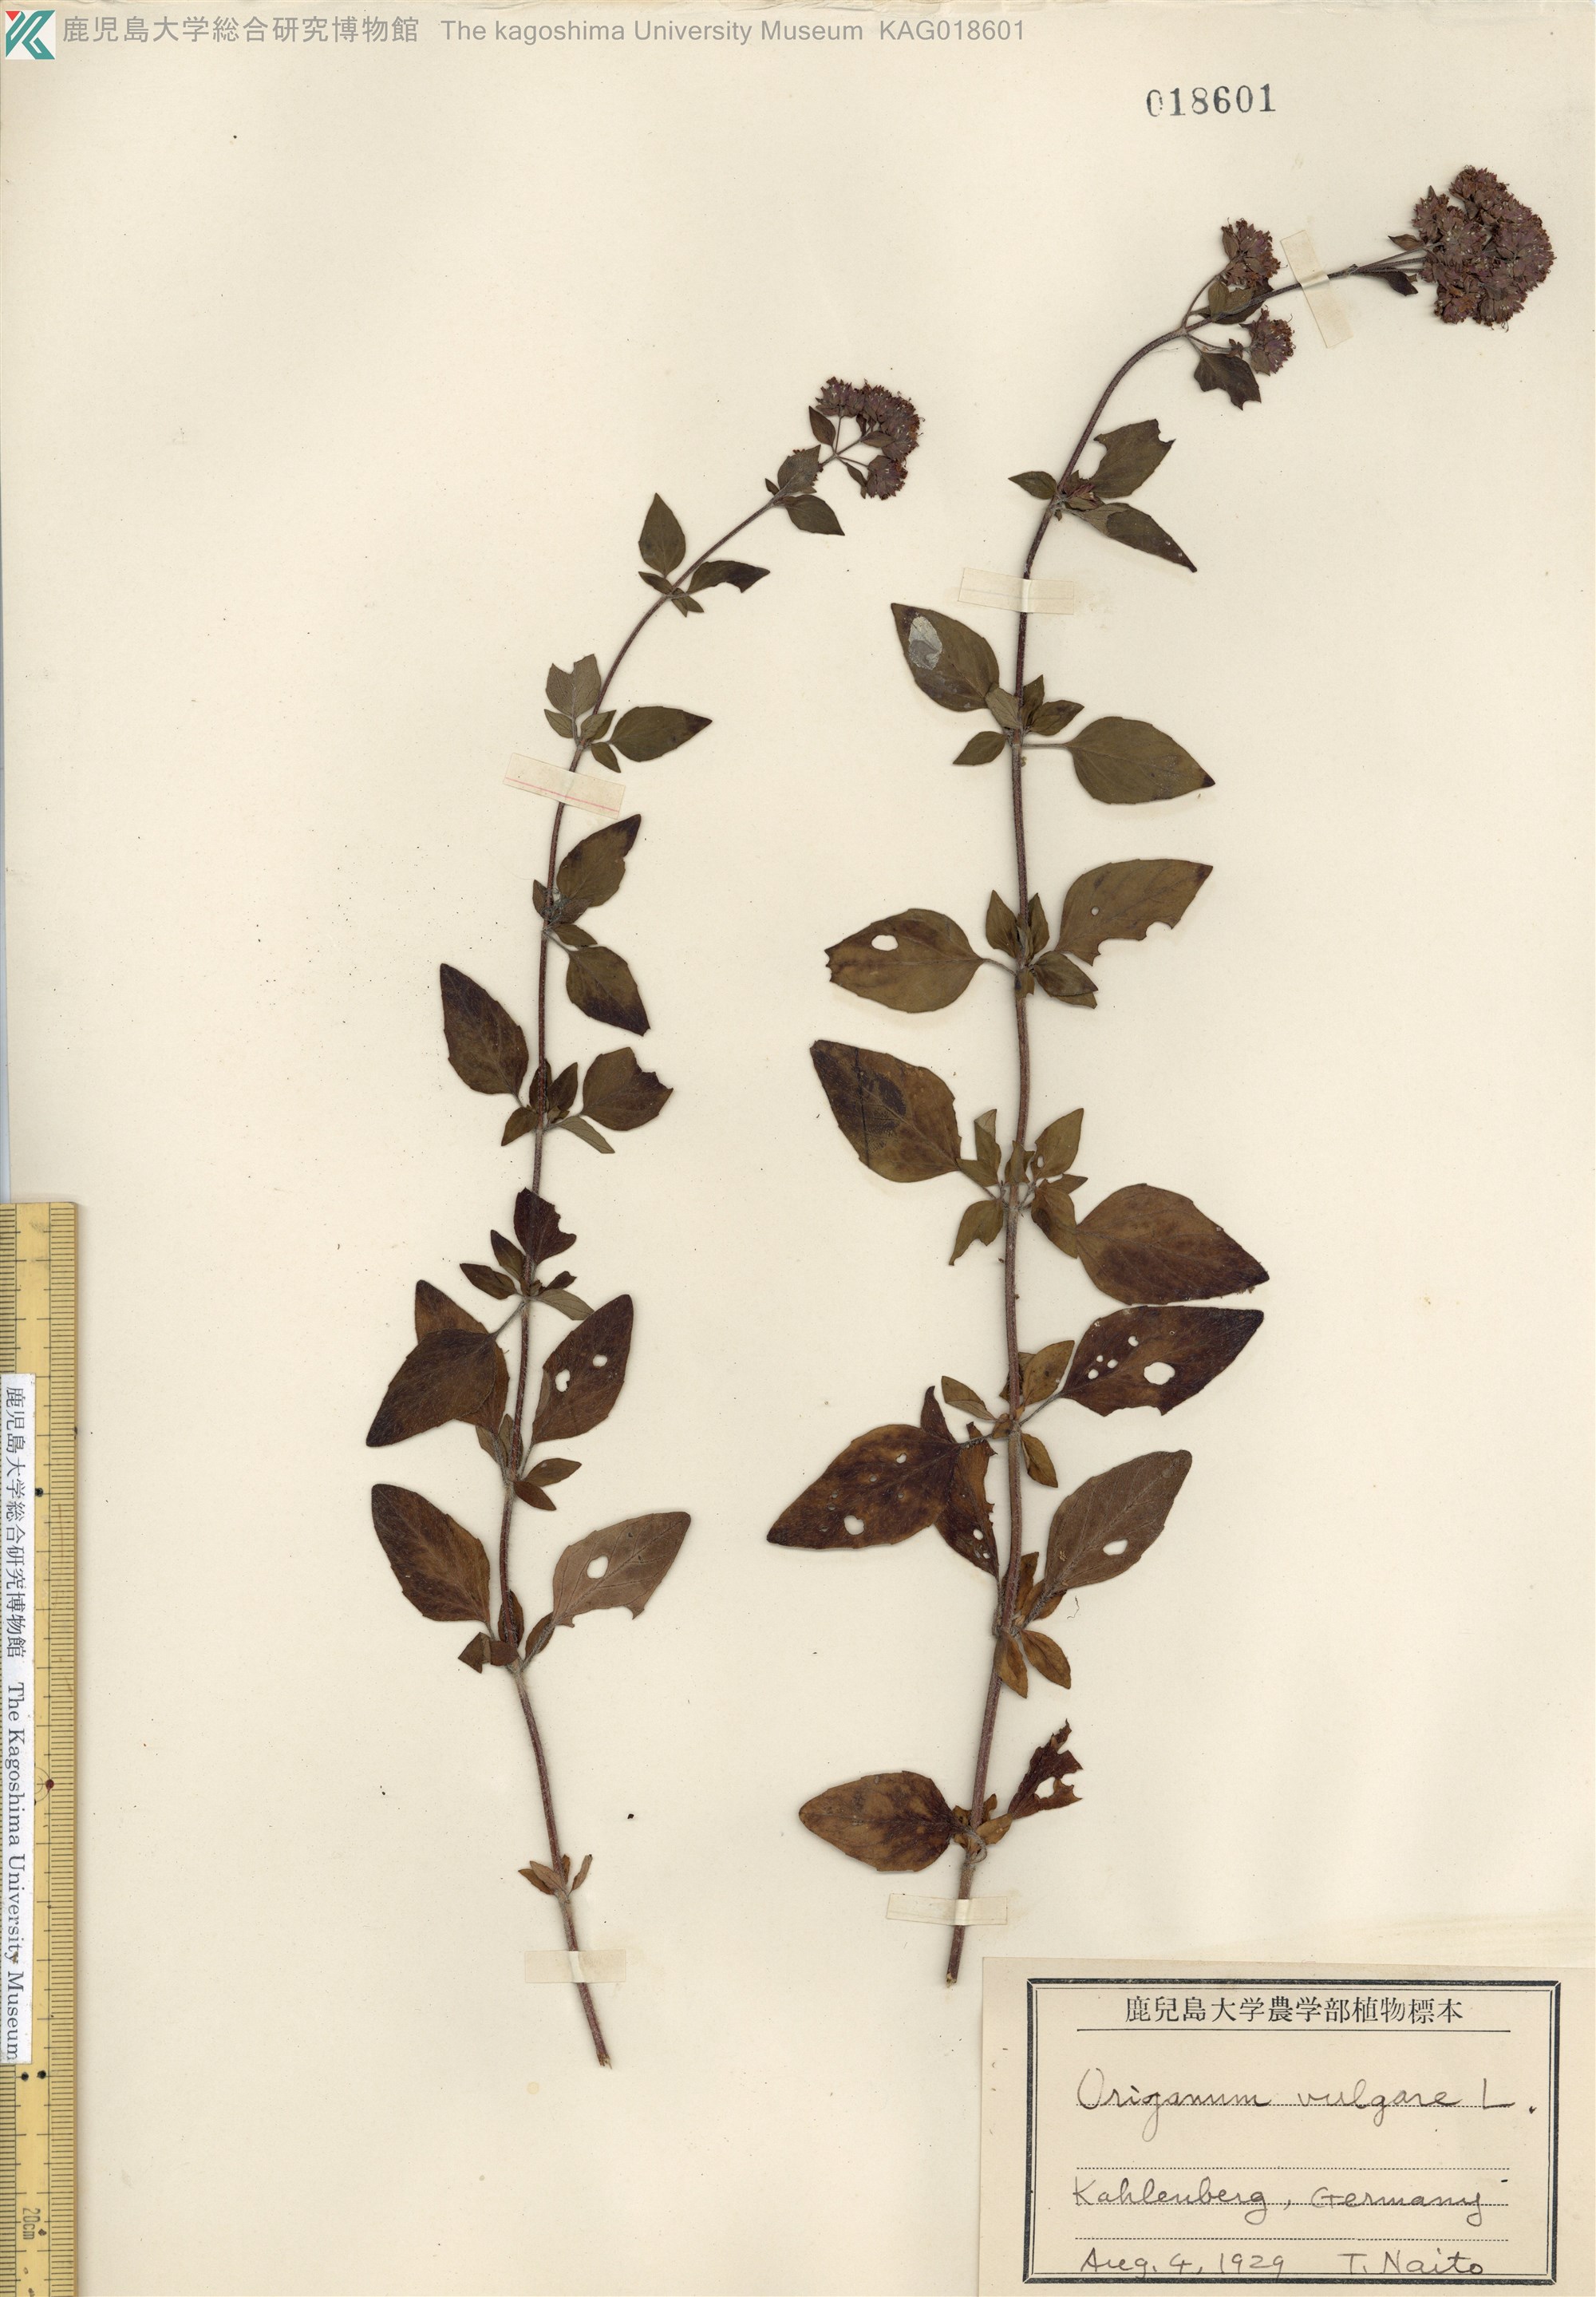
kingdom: Plantae
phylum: Tracheophyta
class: Magnoliopsida
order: Lamiales
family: Lamiaceae
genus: Origanum
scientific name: Origanum vulgare
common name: Wild marjoram
